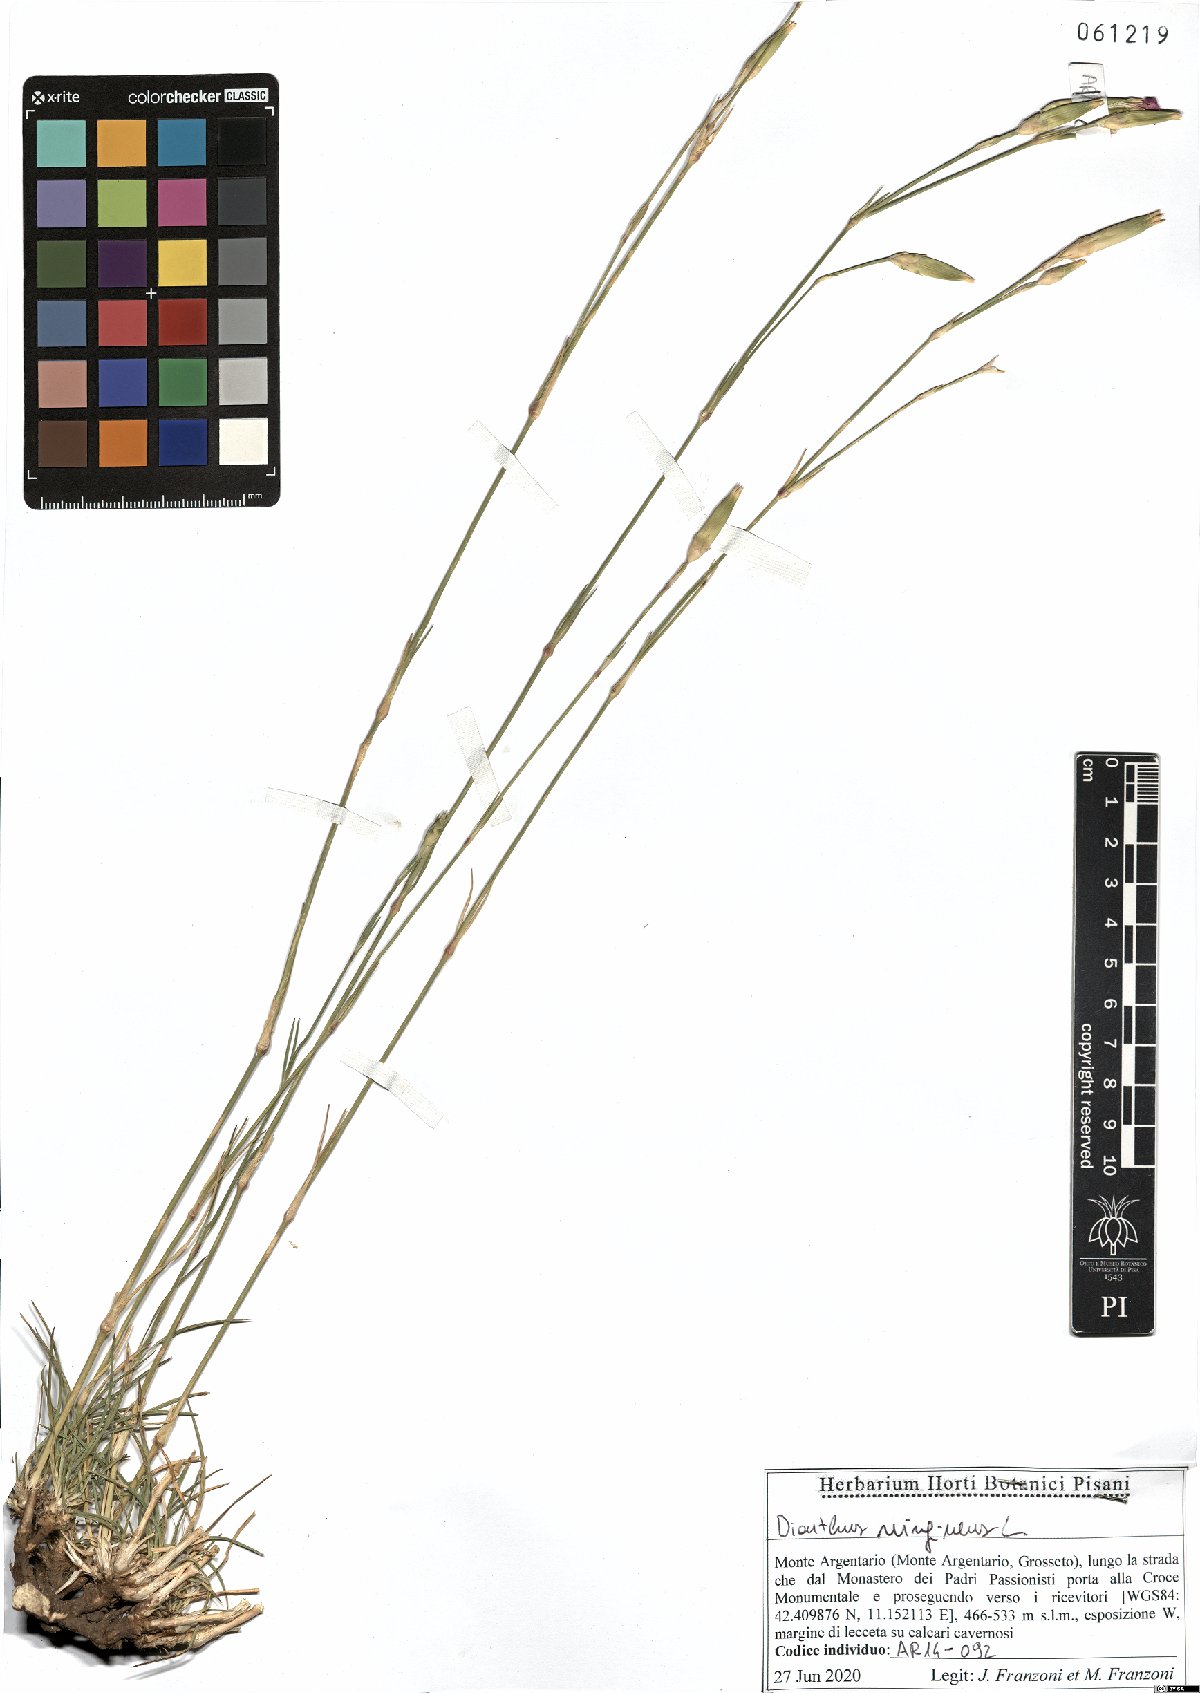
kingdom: Plantae
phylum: Tracheophyta
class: Magnoliopsida
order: Caryophyllales
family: Caryophyllaceae
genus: Dianthus
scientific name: Dianthus virgineus
